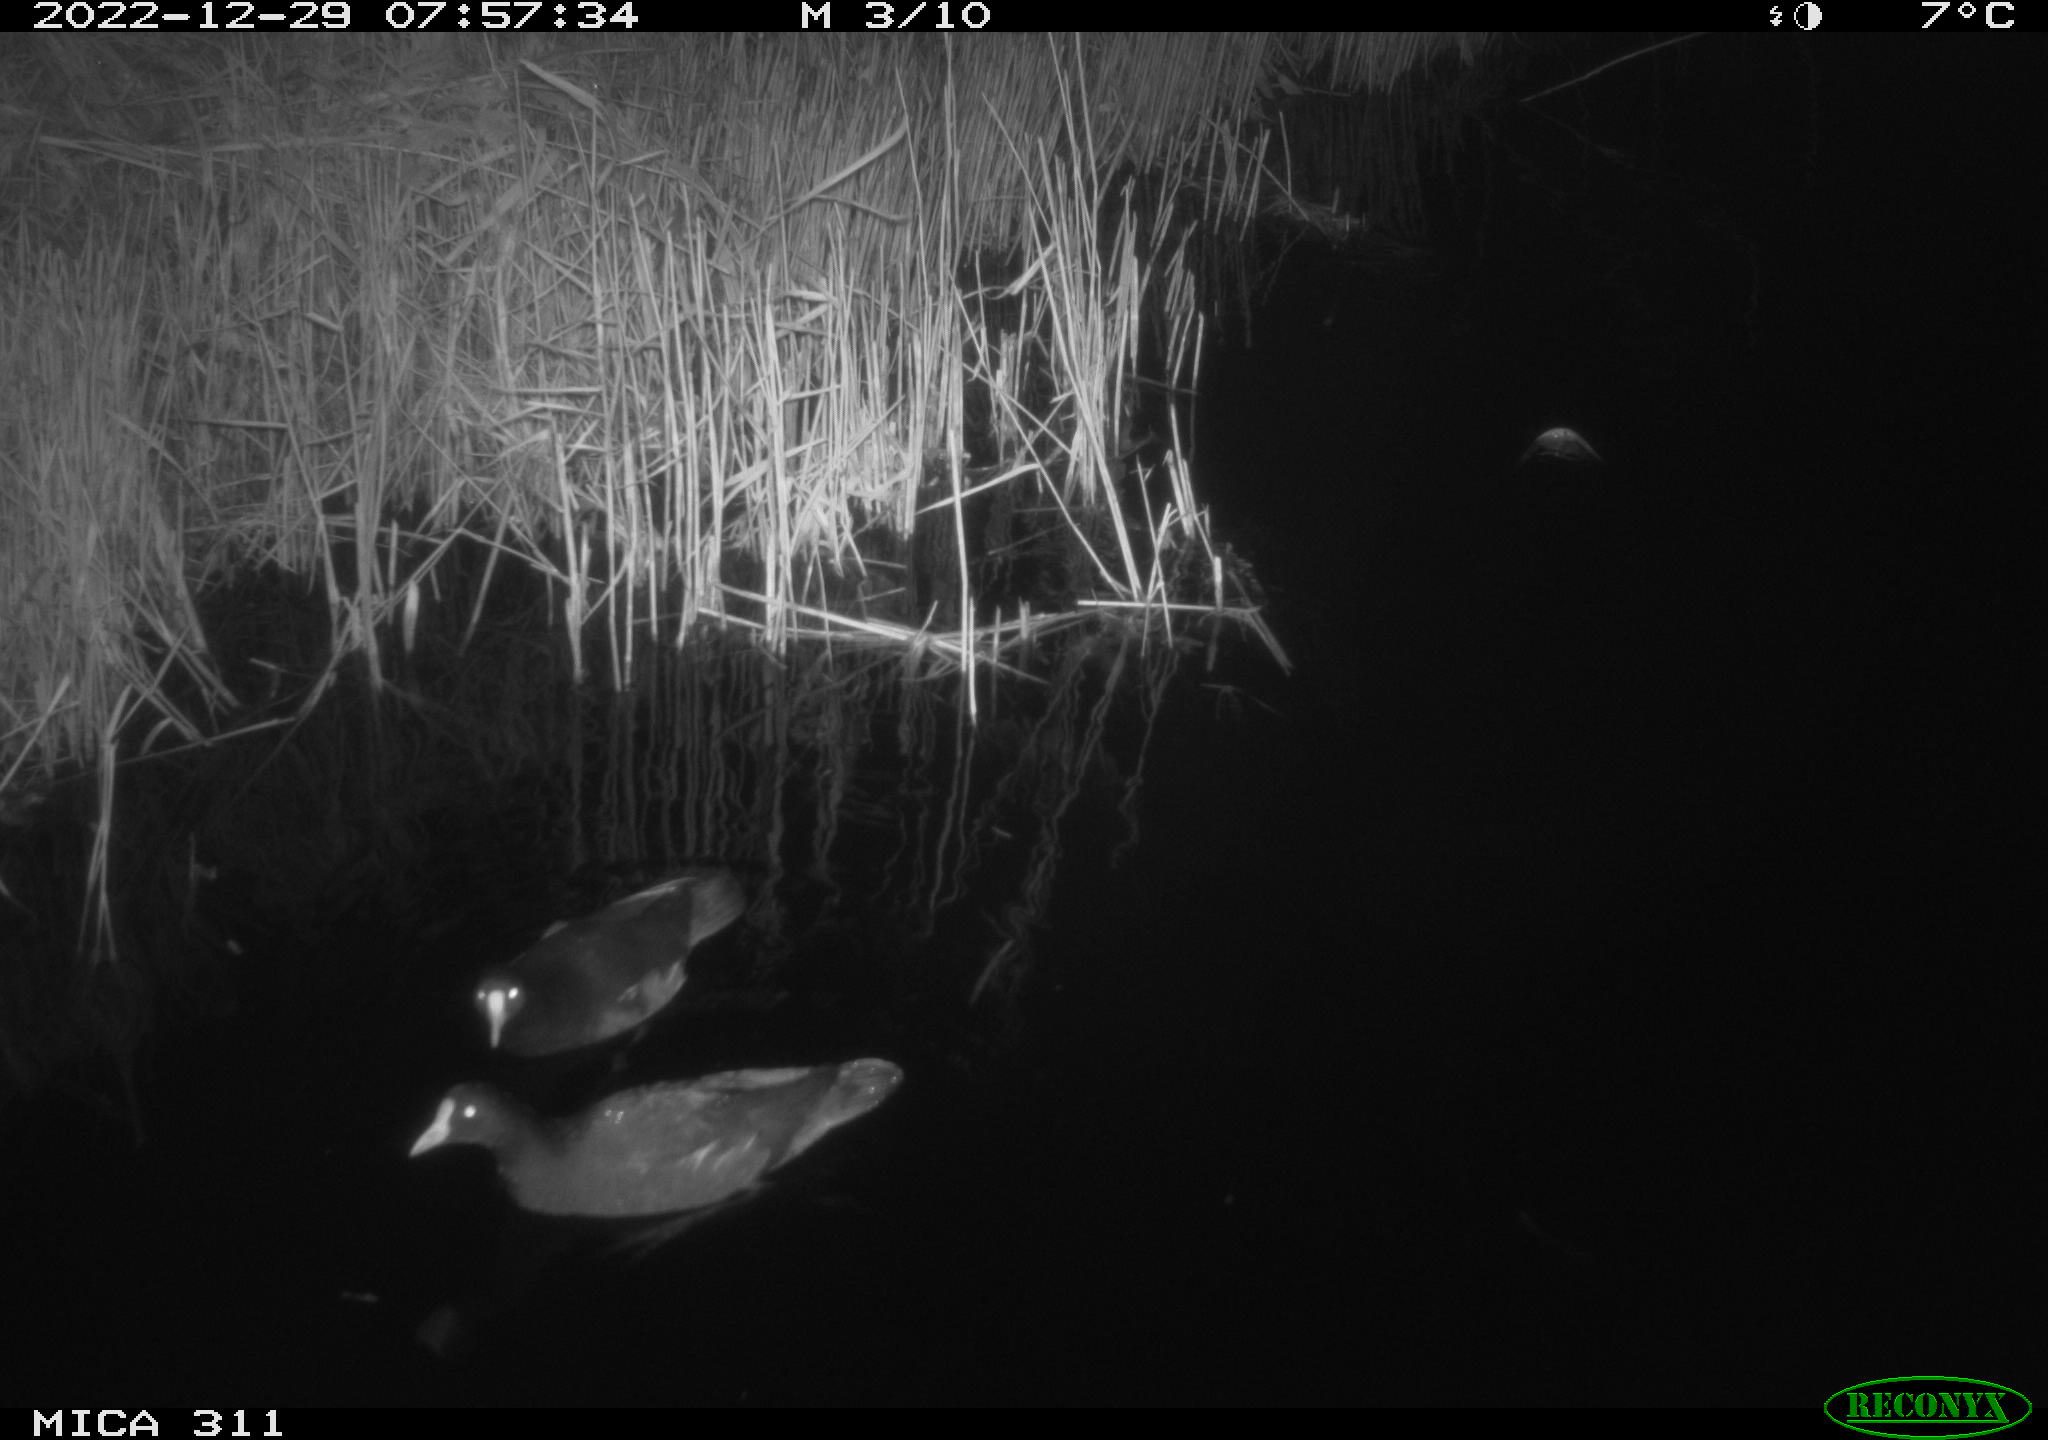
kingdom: Animalia
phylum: Chordata
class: Aves
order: Gruiformes
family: Rallidae
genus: Gallinula
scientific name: Gallinula chloropus
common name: Common moorhen
